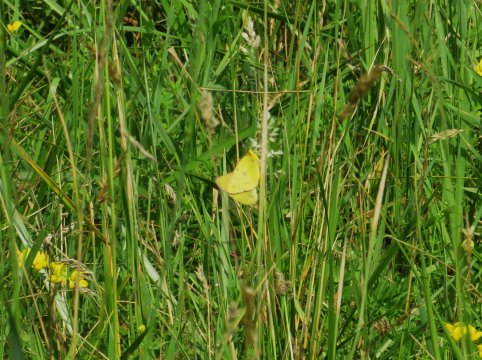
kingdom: Animalia
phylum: Arthropoda
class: Insecta
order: Lepidoptera
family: Pieridae
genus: Colias
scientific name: Colias eurytheme
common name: Orange Sulphur
